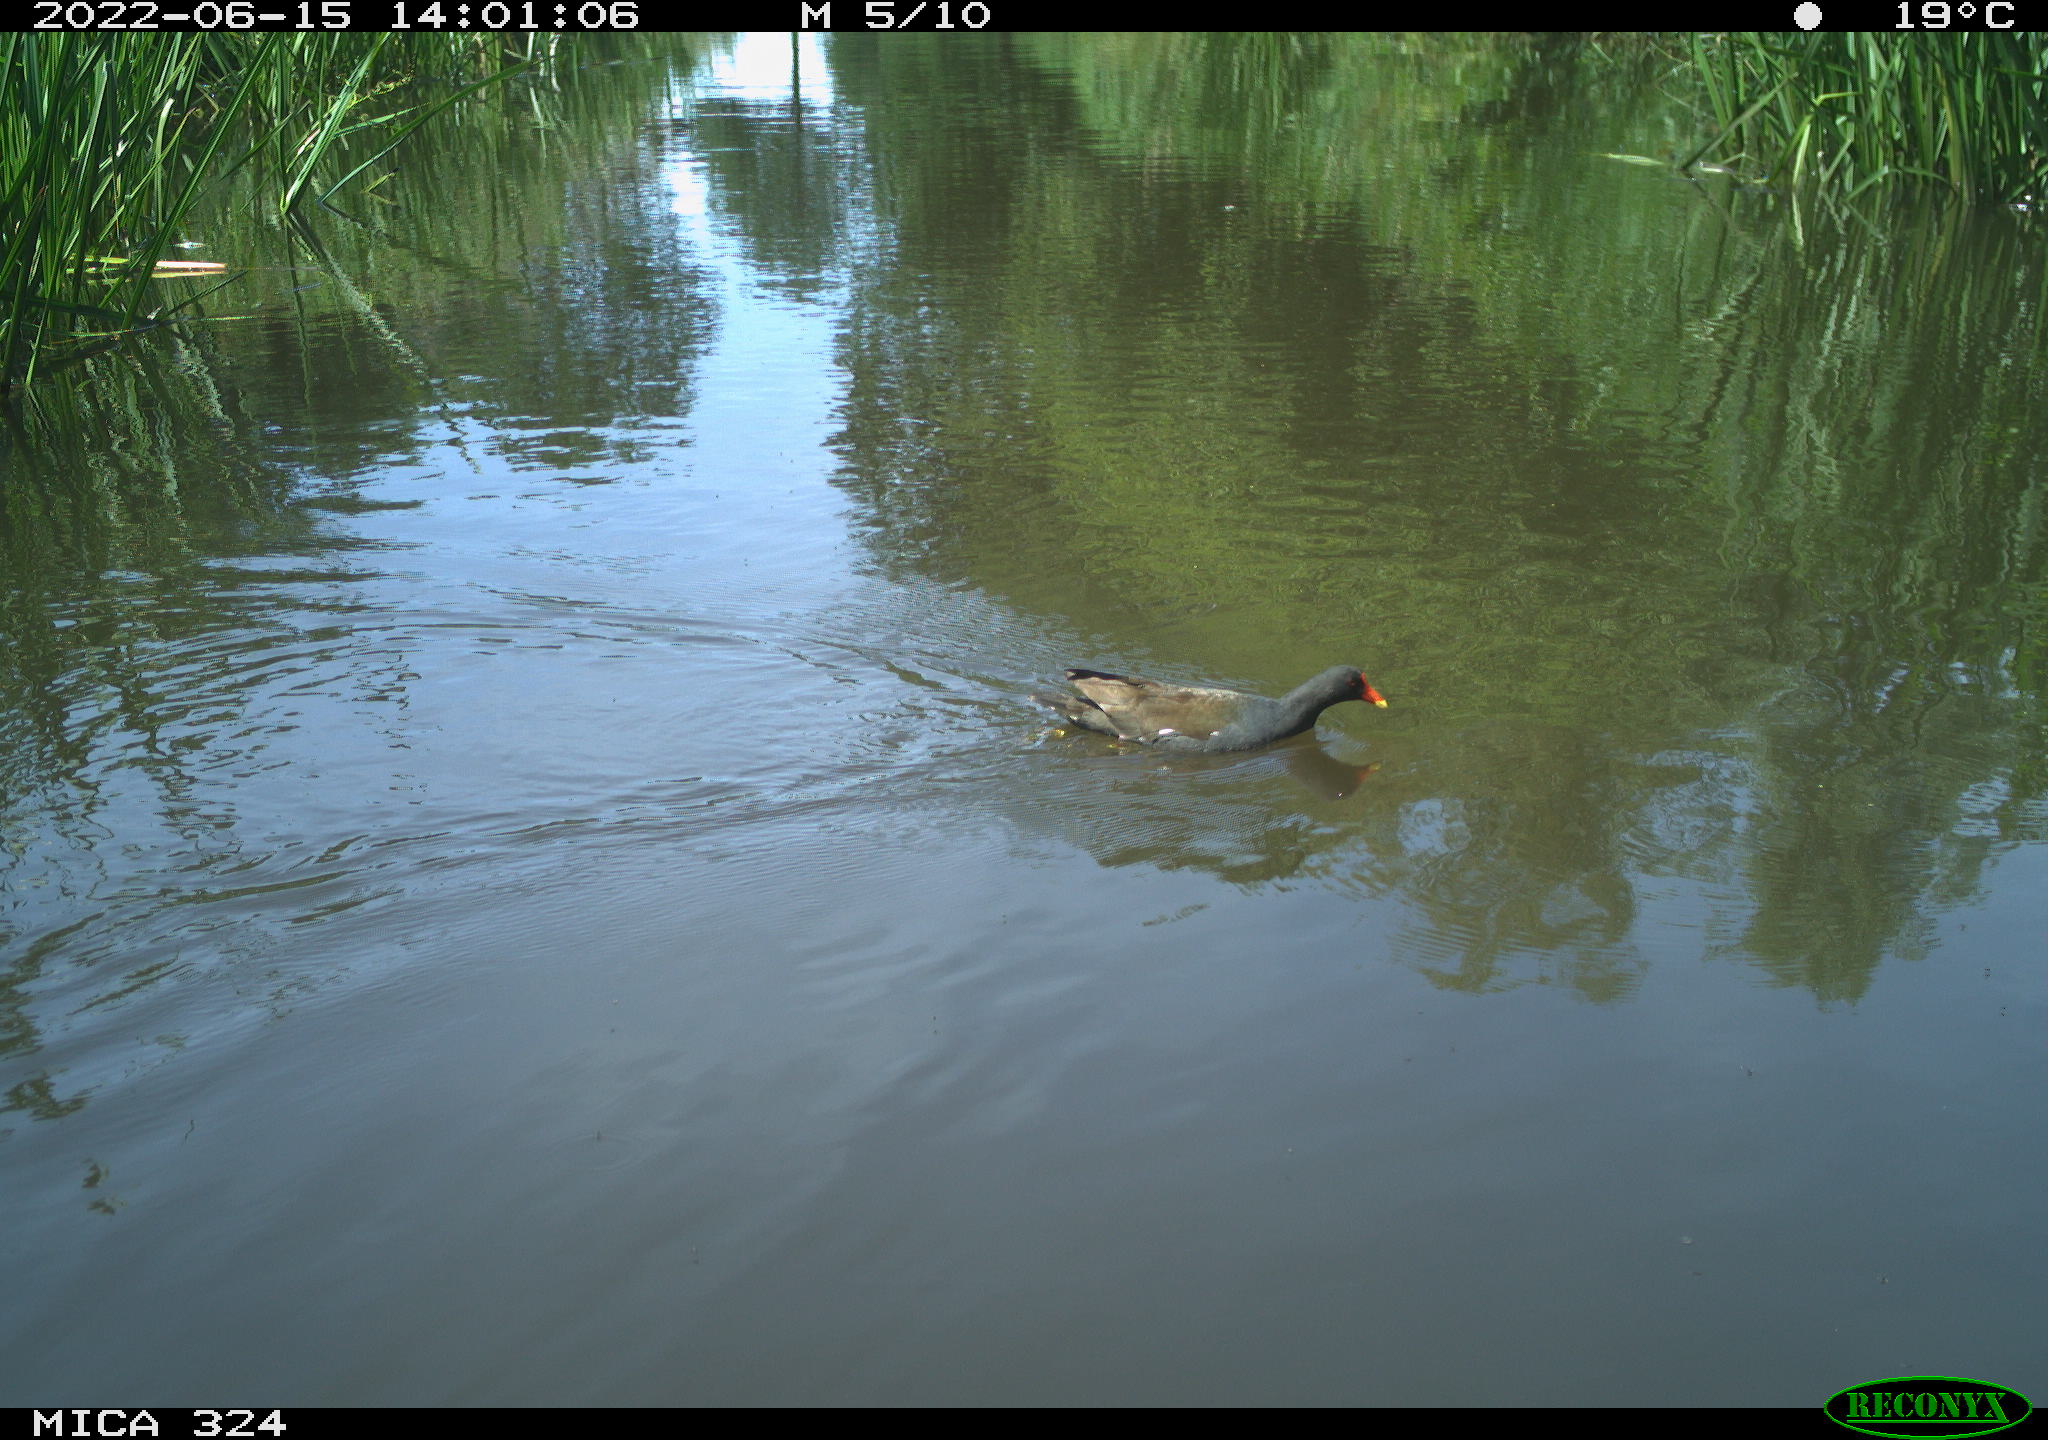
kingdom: Animalia
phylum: Chordata
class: Aves
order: Gruiformes
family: Rallidae
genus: Gallinula
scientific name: Gallinula chloropus
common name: Common moorhen
